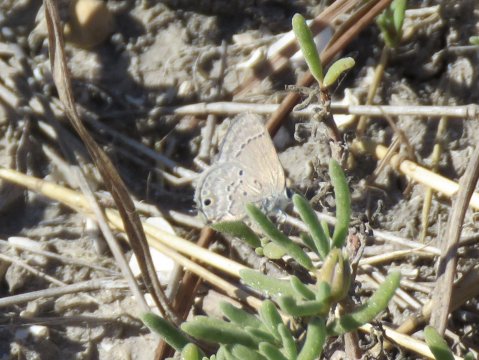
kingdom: Animalia
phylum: Arthropoda
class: Insecta
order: Lepidoptera
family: Lycaenidae
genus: Callicista
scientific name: Callicista columella
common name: Mallow Scrub-Hairstreak
